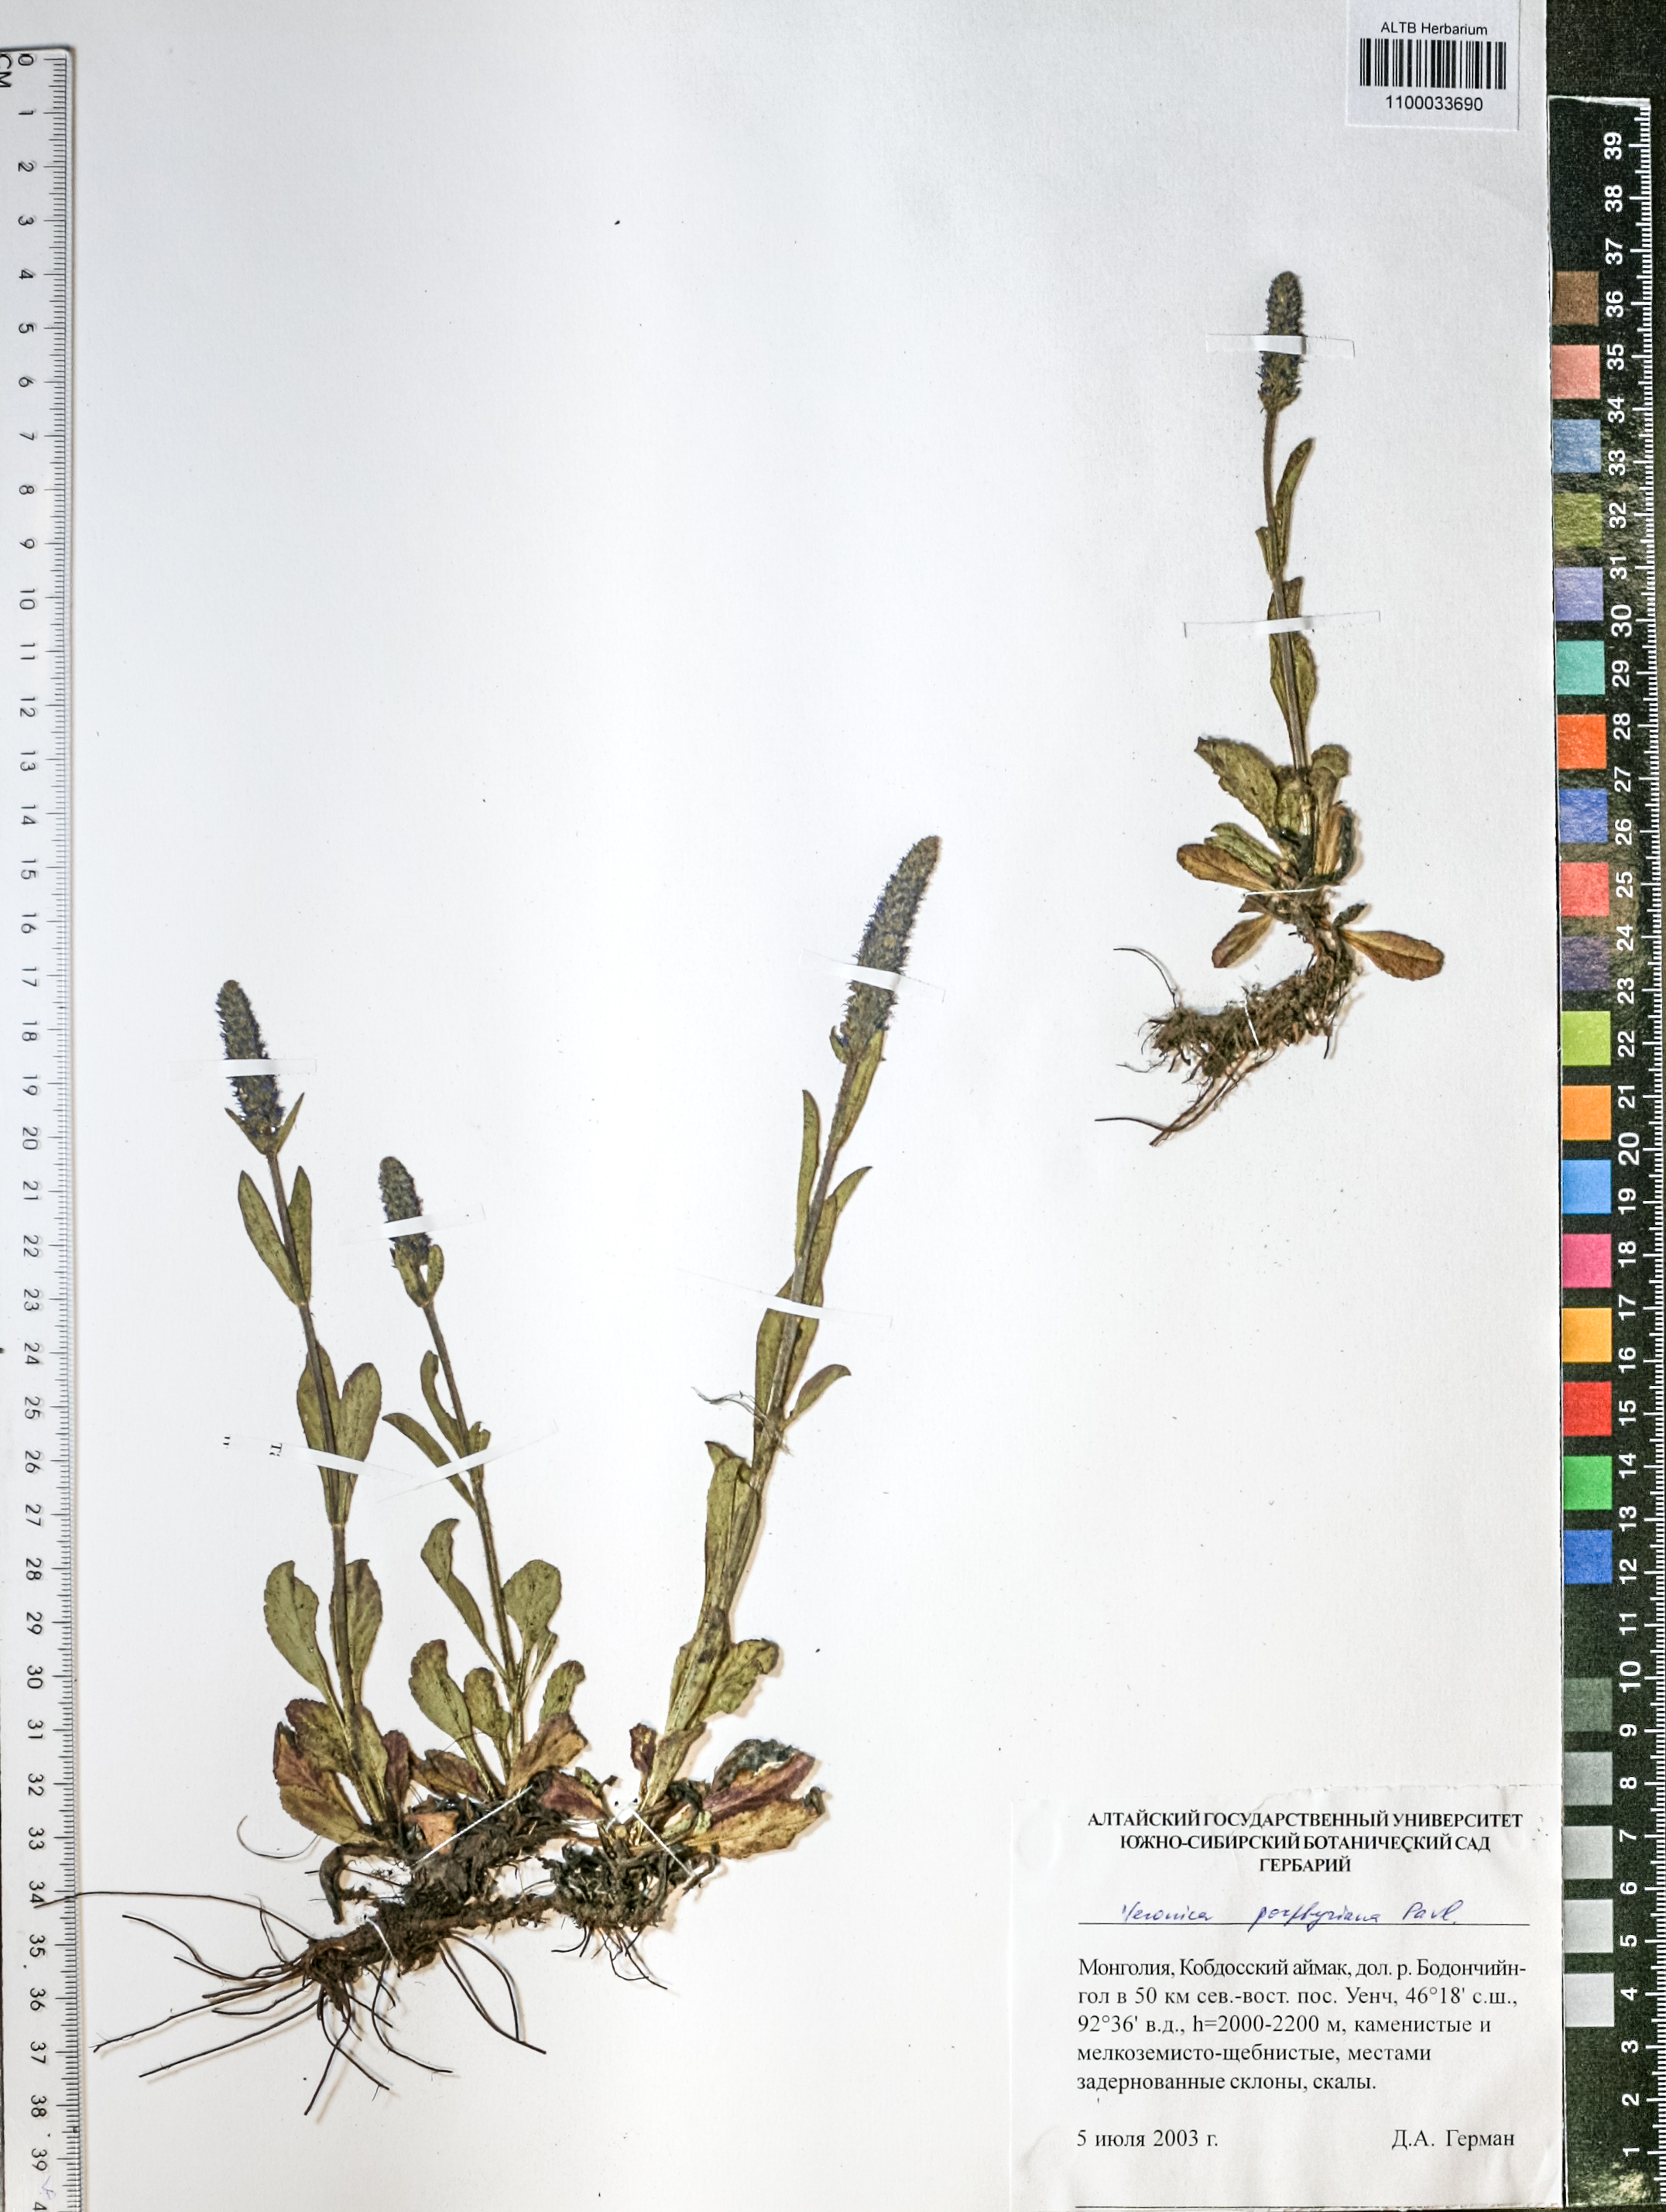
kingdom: Plantae
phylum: Tracheophyta
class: Magnoliopsida
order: Lamiales
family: Plantaginaceae
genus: Veronica
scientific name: Veronica porphyriana
